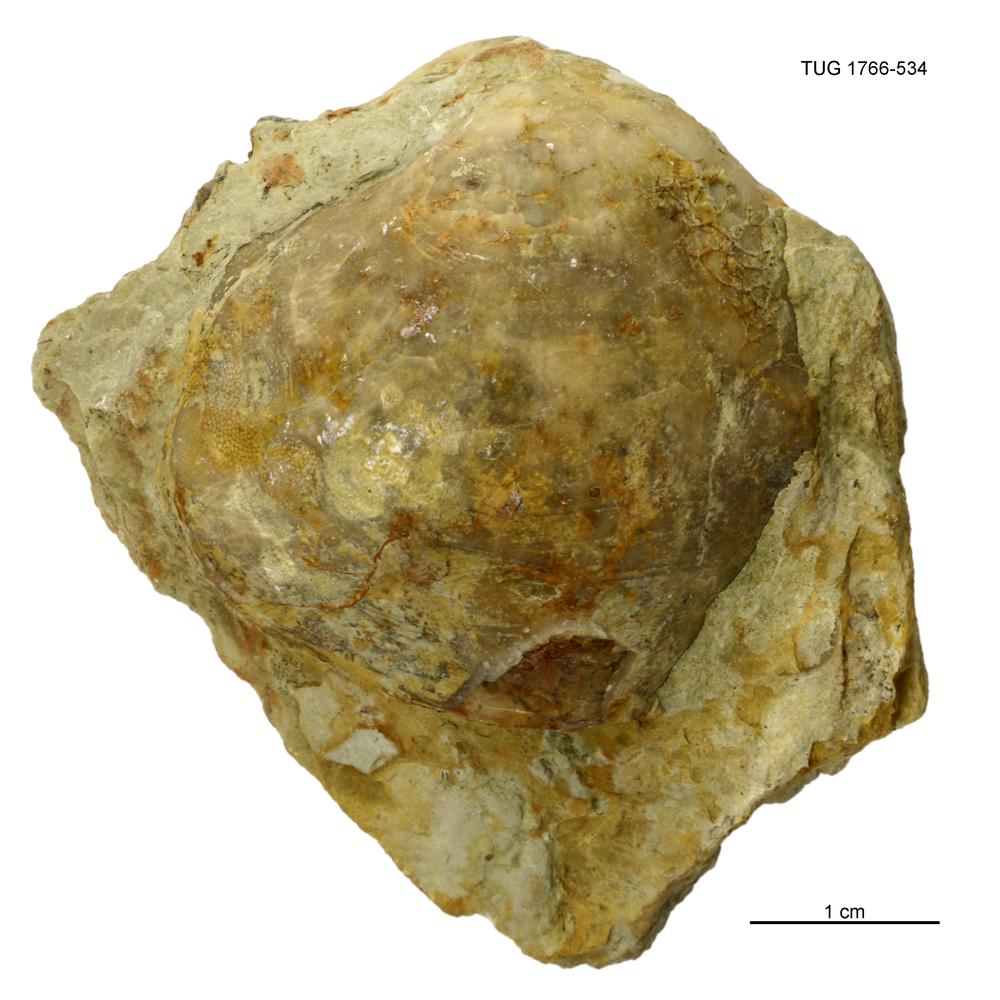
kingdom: Animalia
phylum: Brachiopoda
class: Rhynchonellata
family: Porambonitidae
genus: Porambonites
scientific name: Porambonites
